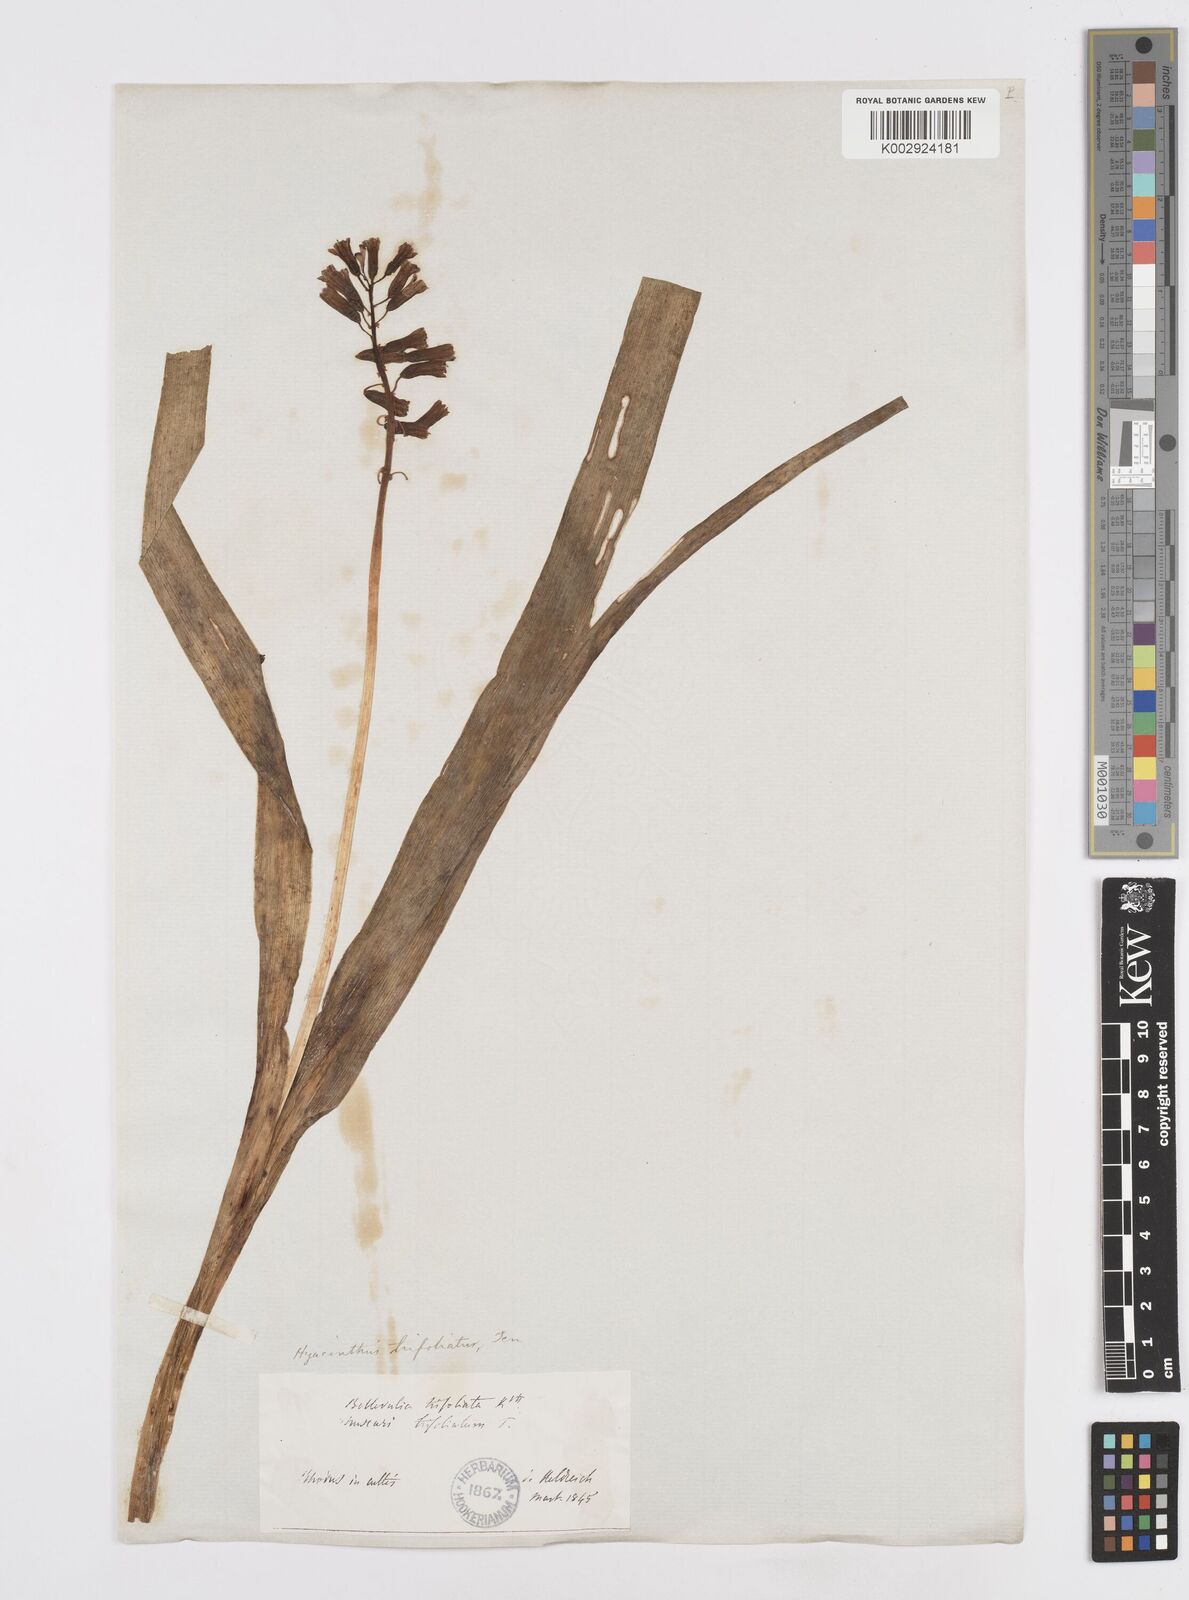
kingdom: Plantae
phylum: Tracheophyta
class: Liliopsida
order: Asparagales
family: Asparagaceae
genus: Bellevalia
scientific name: Bellevalia
